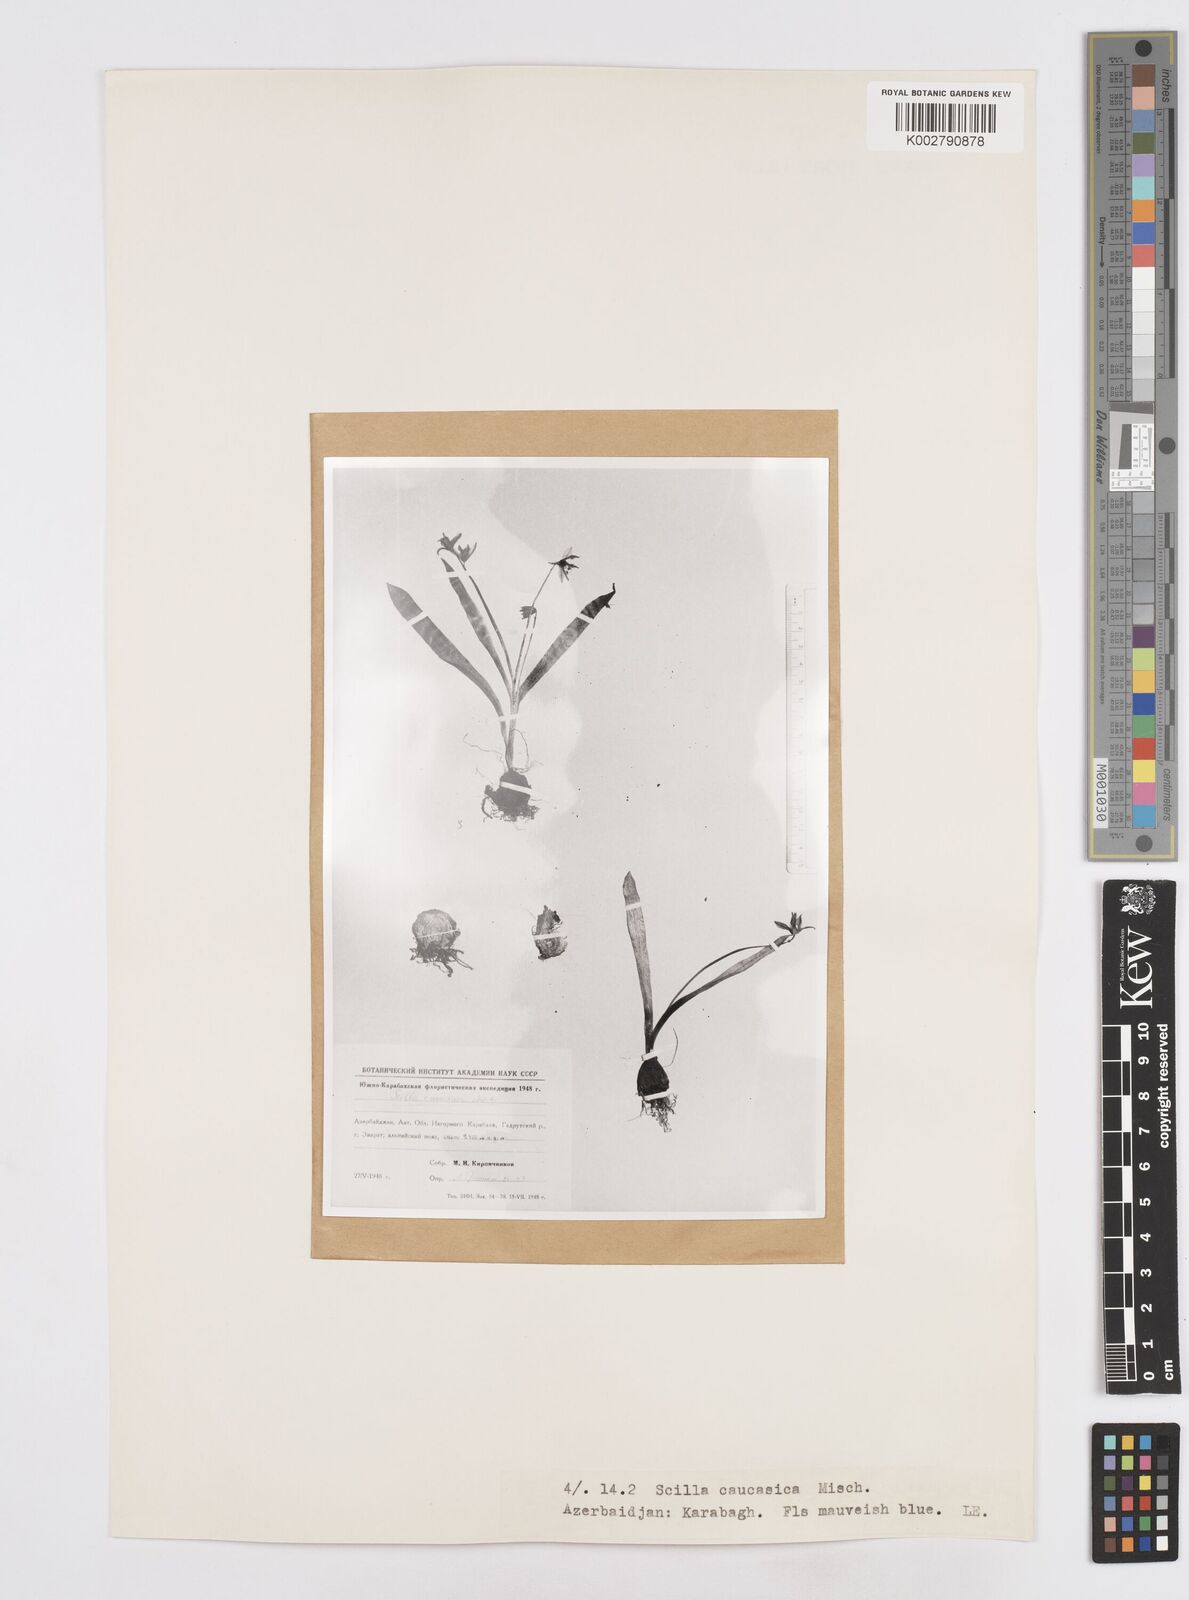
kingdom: Plantae
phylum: Tracheophyta
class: Liliopsida
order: Asparagales
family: Asparagaceae
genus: Scilla
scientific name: Scilla siberica
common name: Siberian squill
